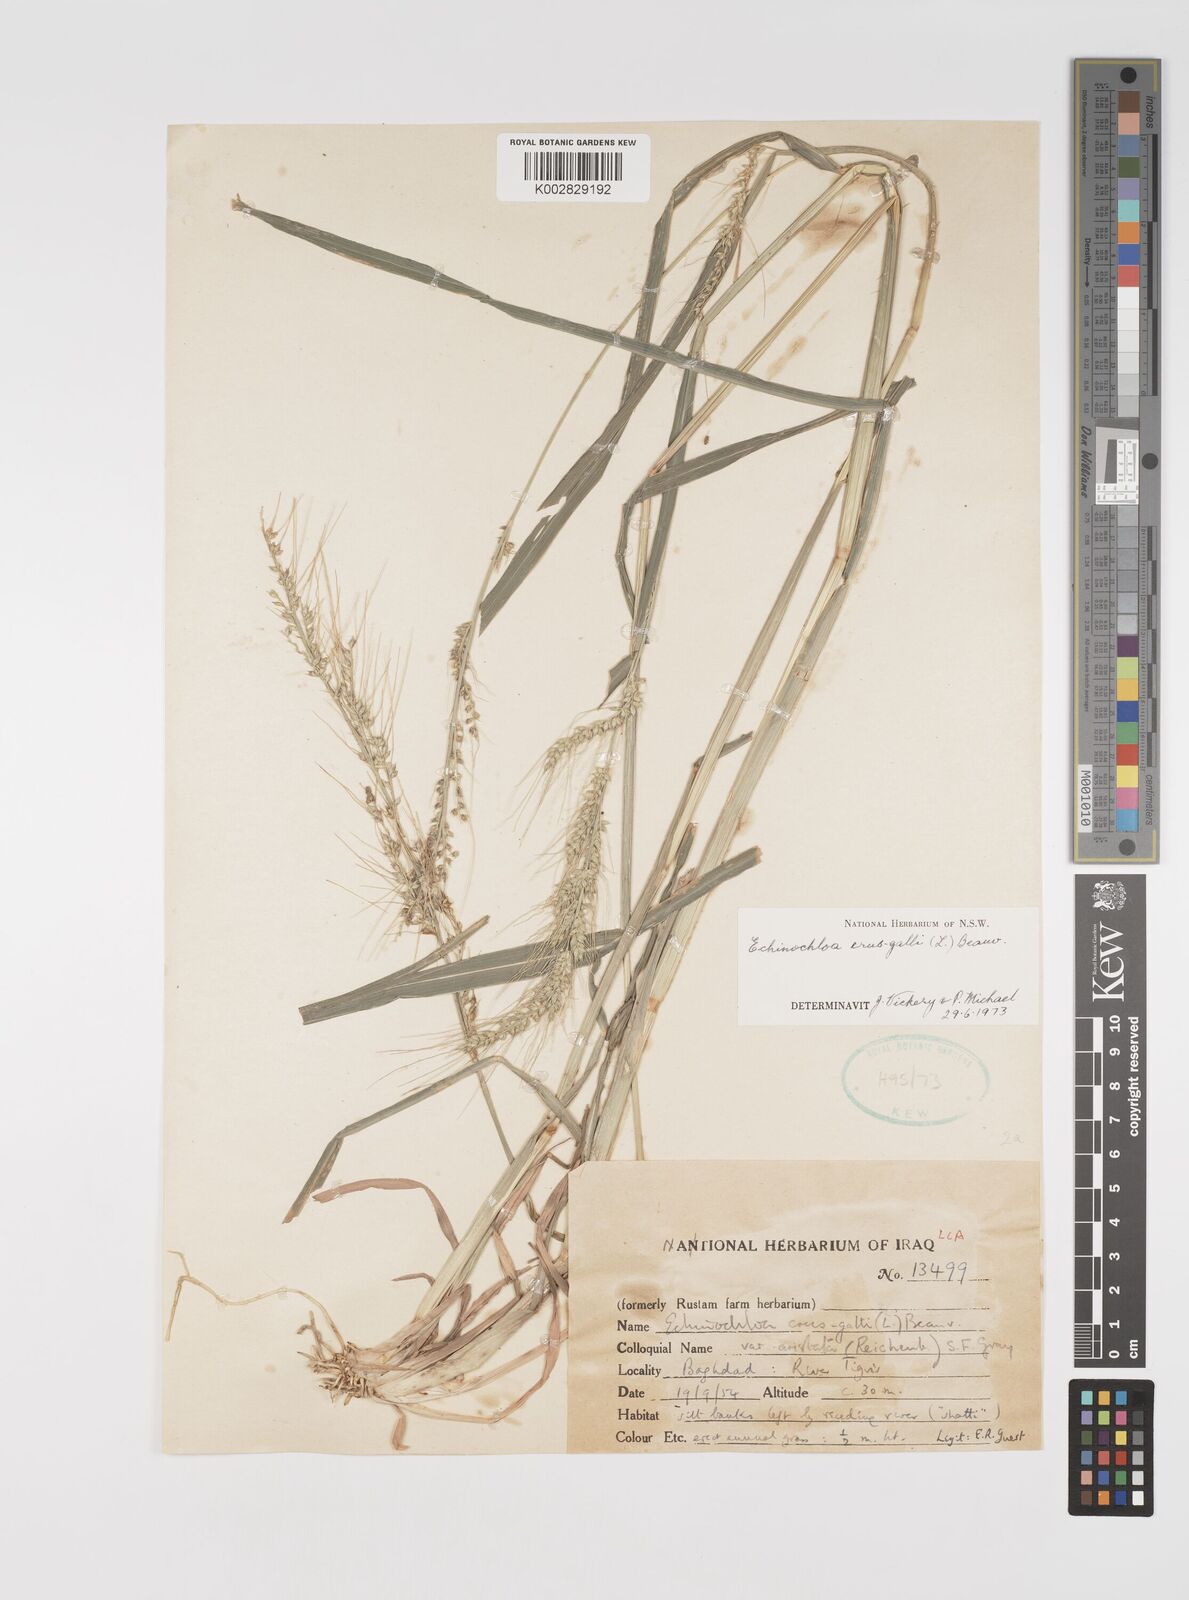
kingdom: Plantae
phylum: Tracheophyta
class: Liliopsida
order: Poales
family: Poaceae
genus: Echinochloa
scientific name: Echinochloa crus-galli
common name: Cockspur
